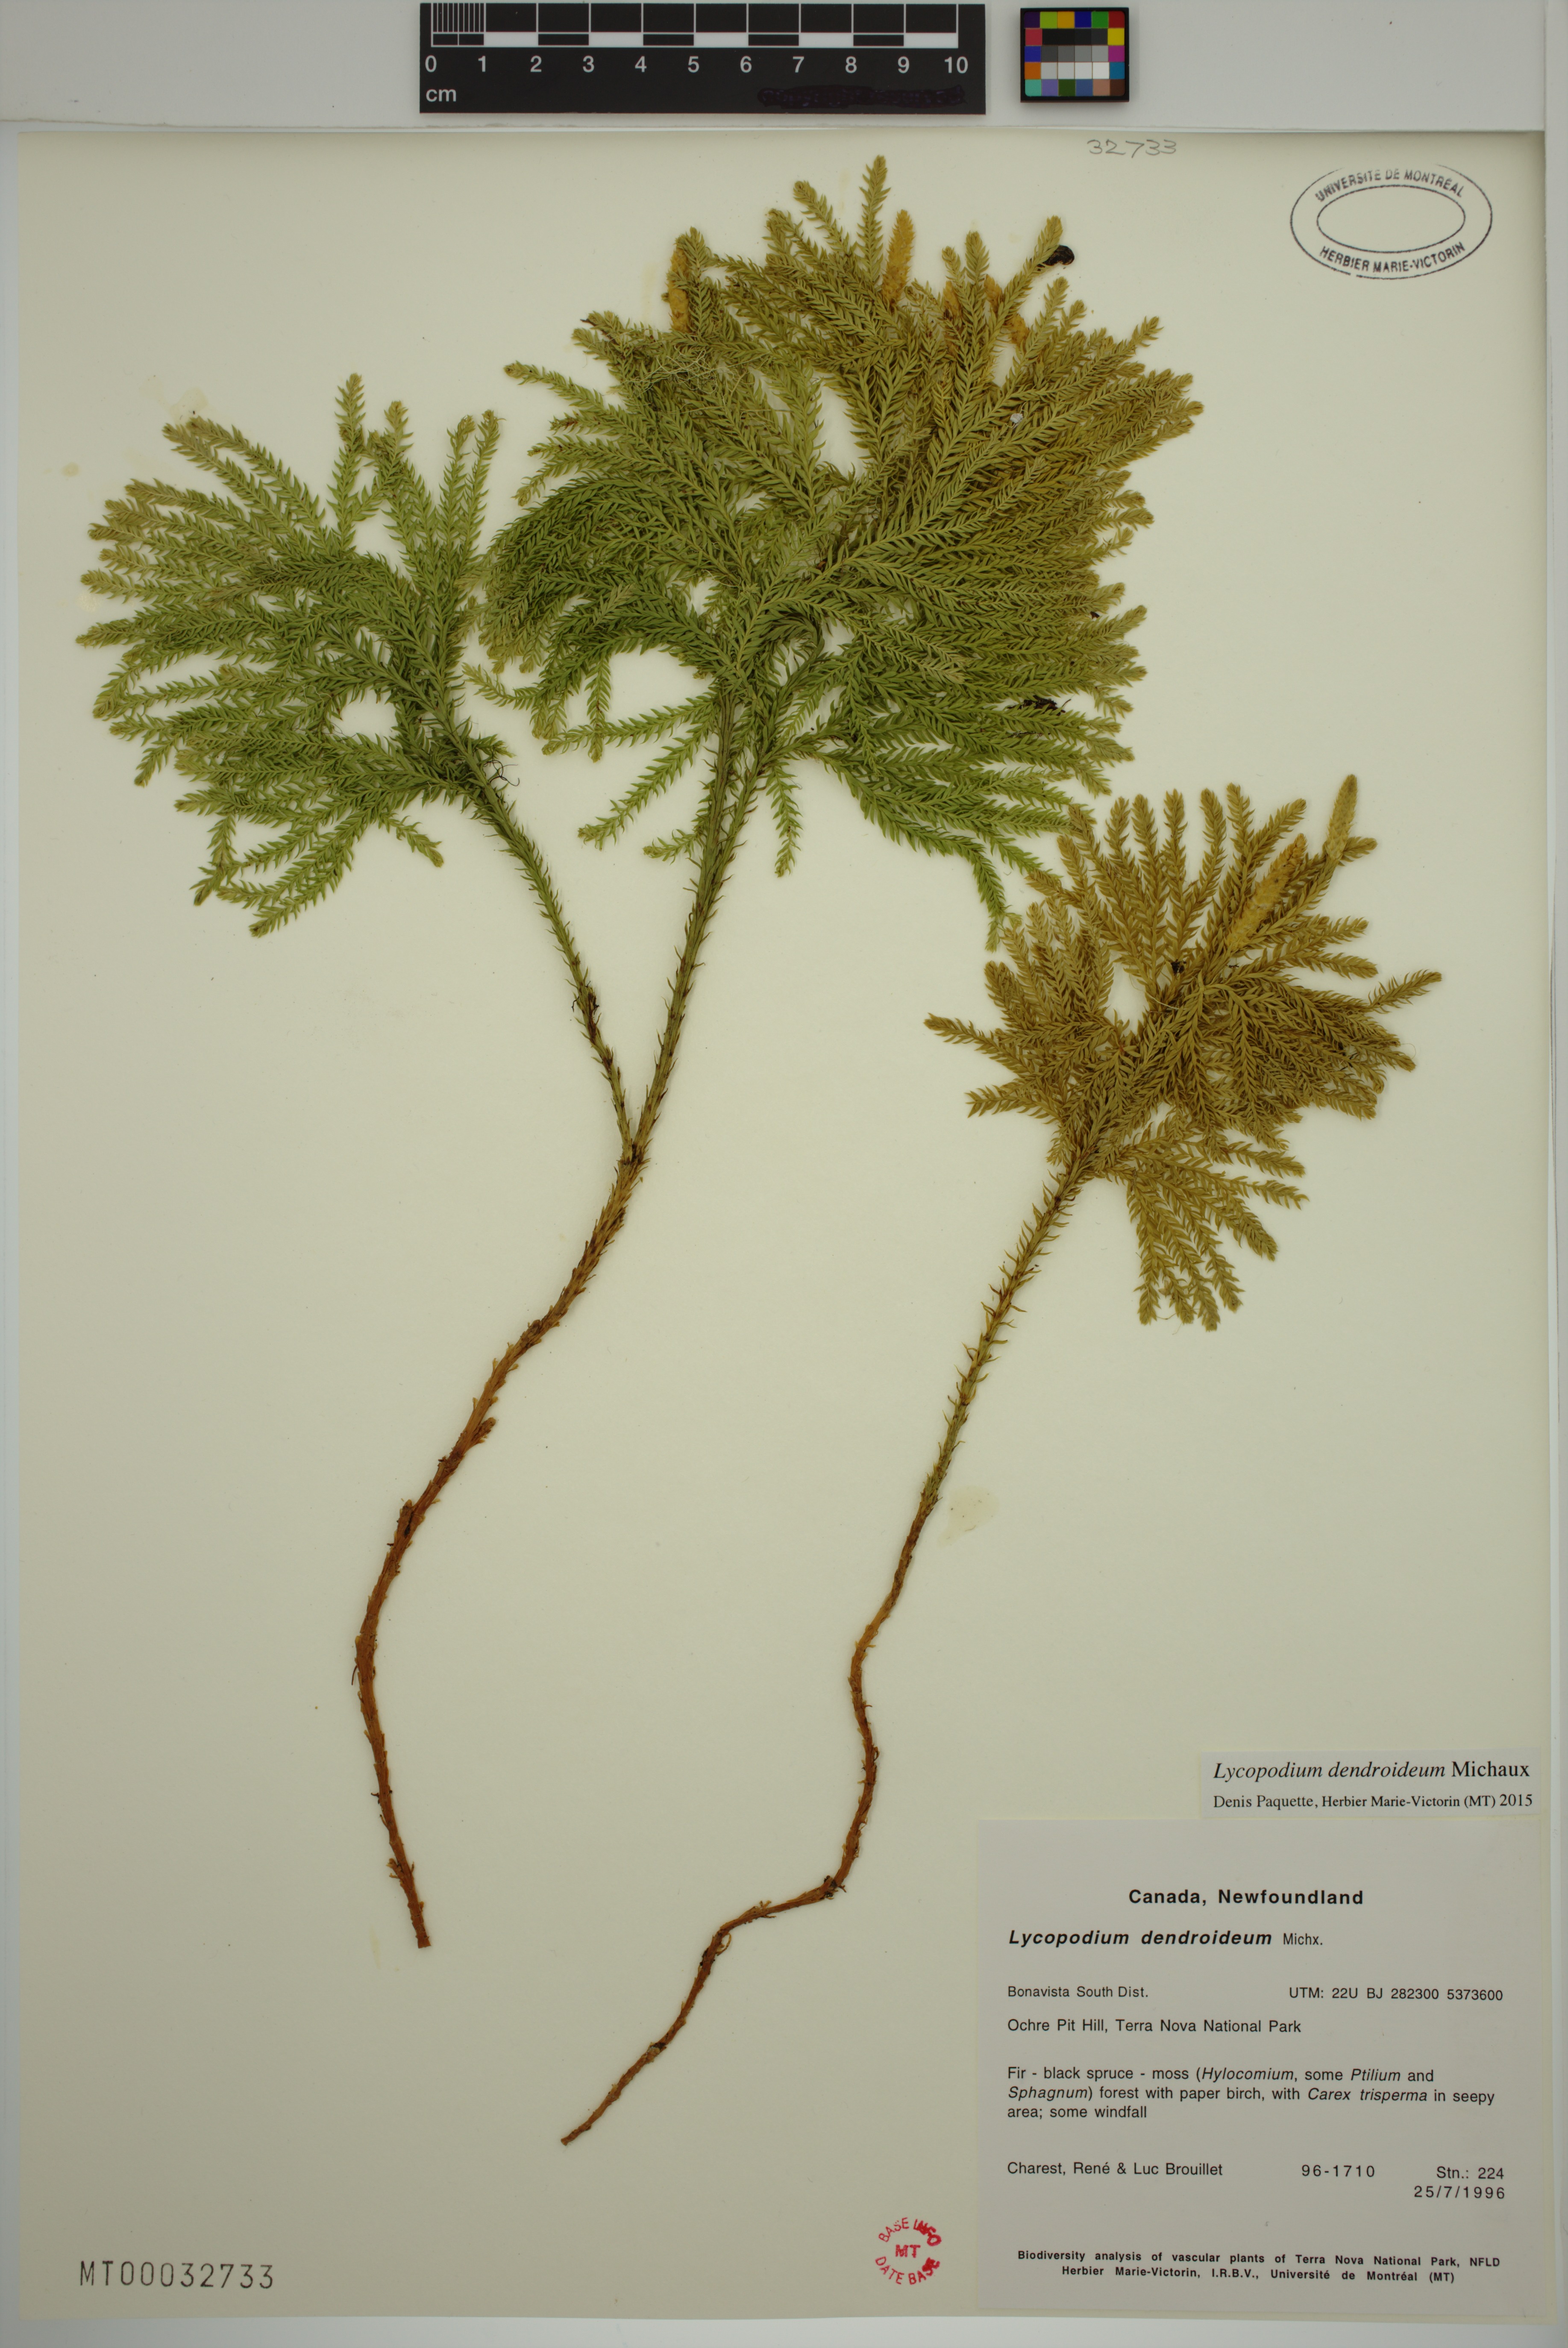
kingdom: Plantae
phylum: Tracheophyta
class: Lycopodiopsida
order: Lycopodiales
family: Lycopodiaceae
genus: Dendrolycopodium
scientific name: Dendrolycopodium dendroideum
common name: Northern tree-clubmoss
